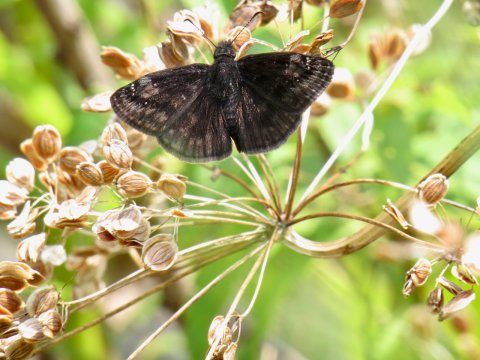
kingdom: Animalia
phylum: Arthropoda
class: Insecta
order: Lepidoptera
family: Hesperiidae
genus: Gesta
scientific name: Gesta
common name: Wild Indigo Duskywing
